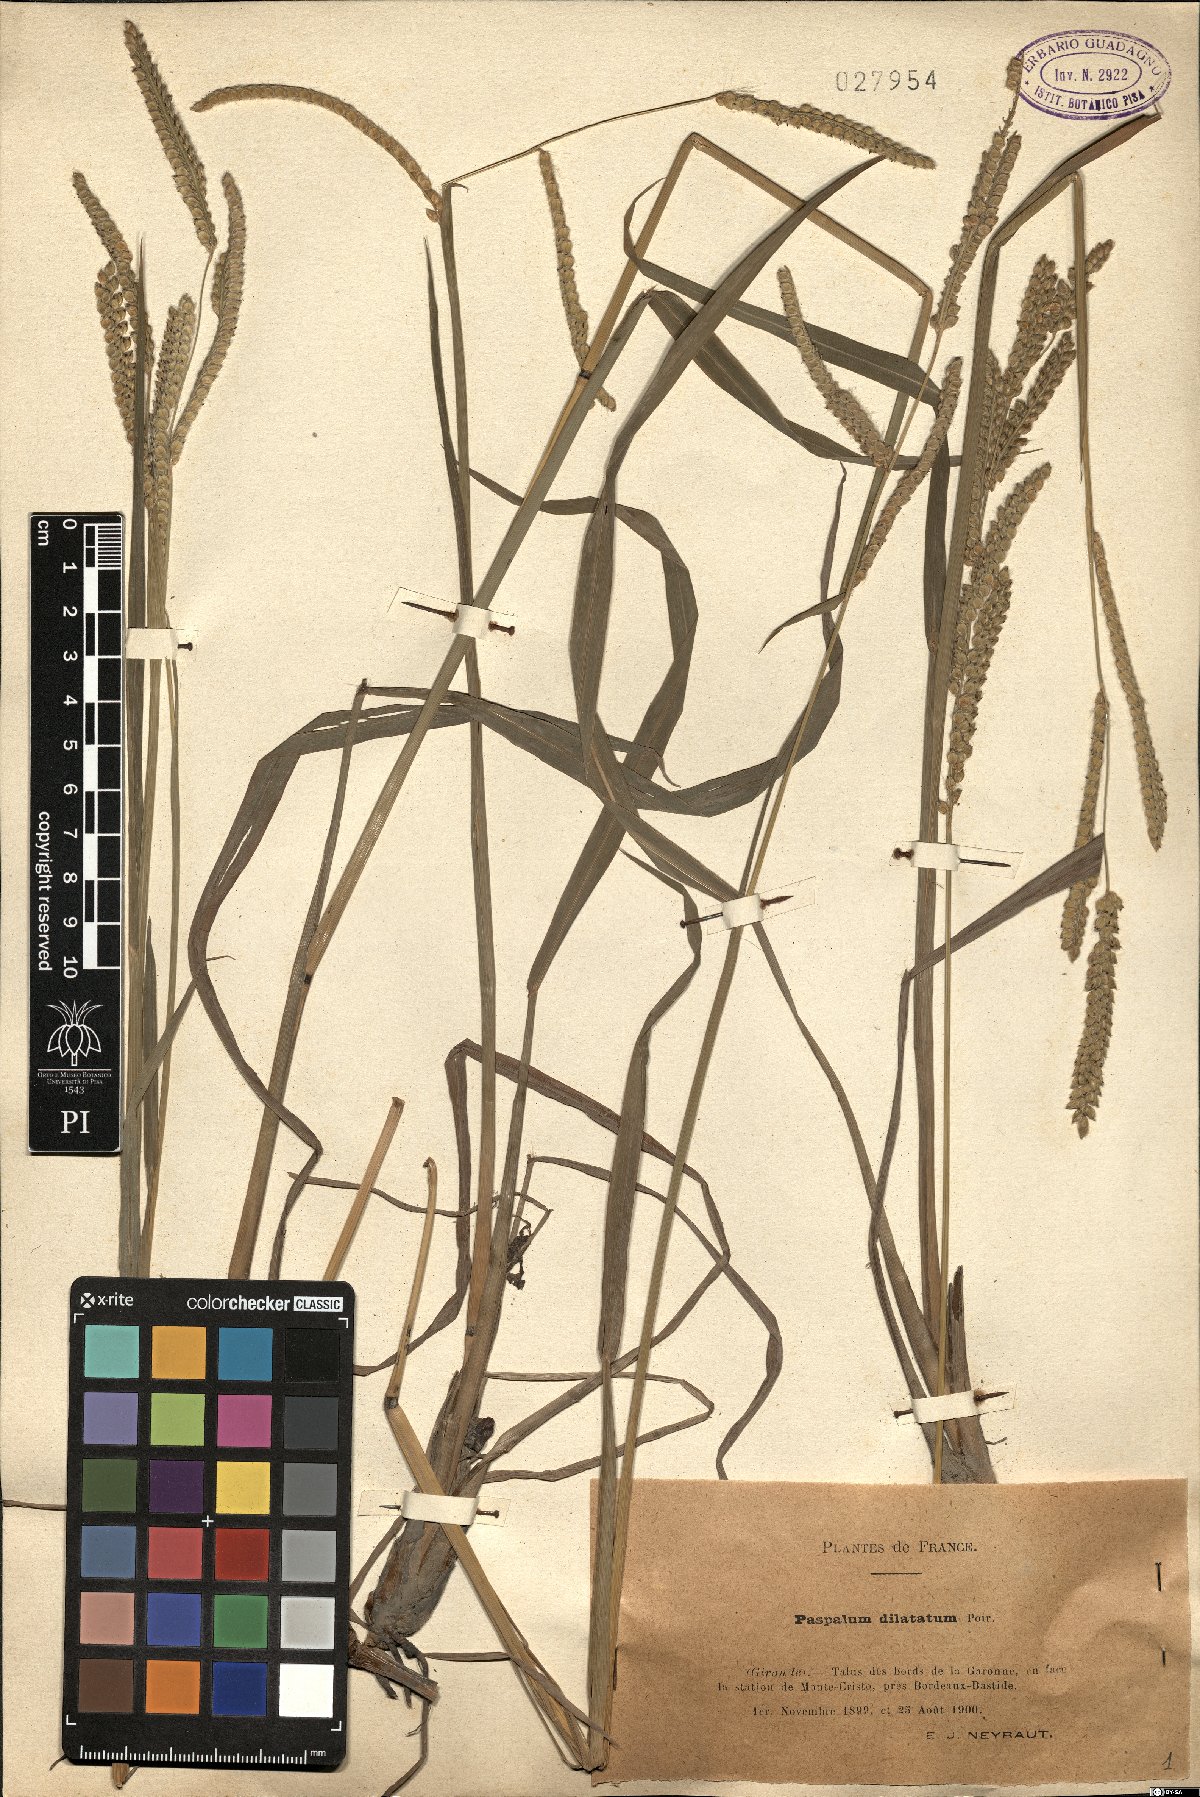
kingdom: Plantae
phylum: Tracheophyta
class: Liliopsida
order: Poales
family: Poaceae
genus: Paspalum
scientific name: Paspalum dilatatum
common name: Dallisgrass
